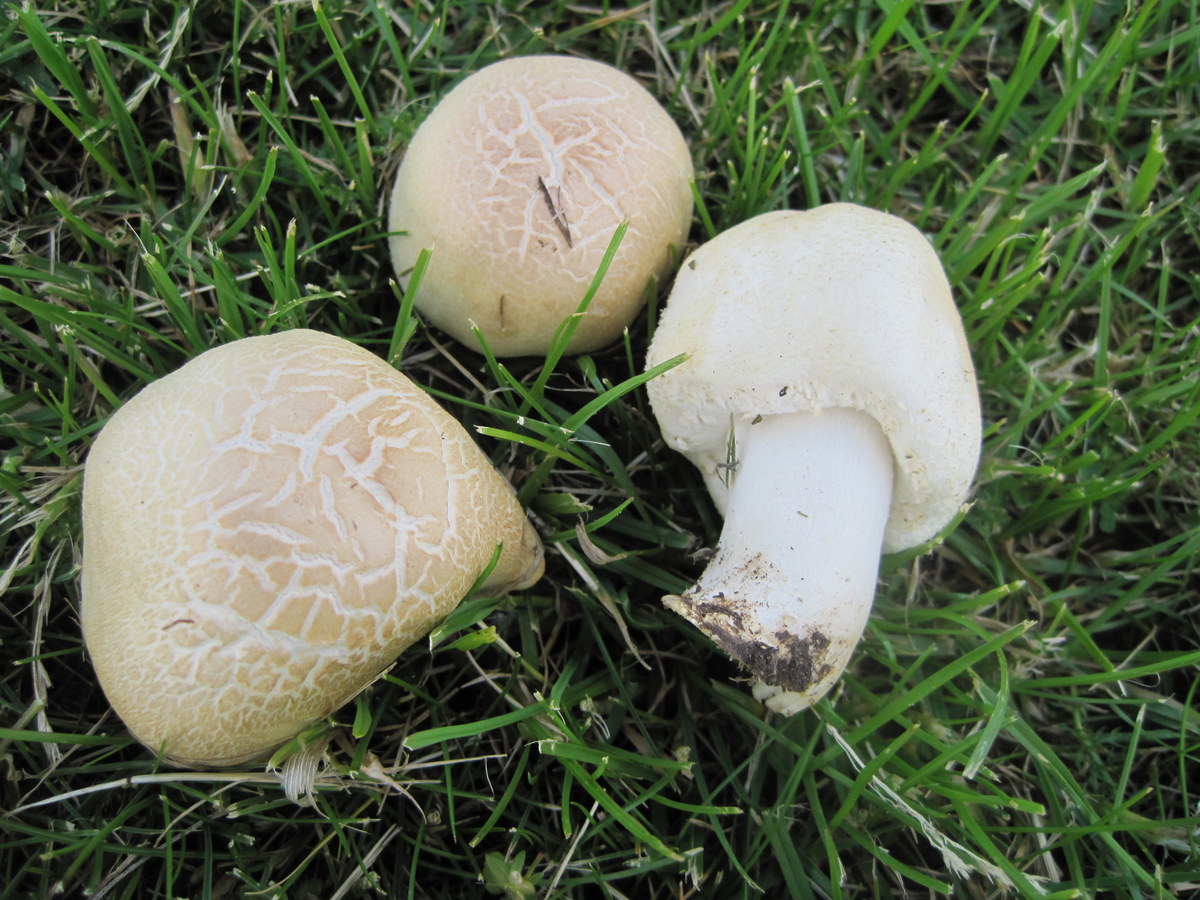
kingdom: Fungi
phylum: Basidiomycota
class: Agaricomycetes
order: Agaricales
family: Agaricaceae
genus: Agaricus
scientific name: Agaricus arvensis
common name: ager-champignon
